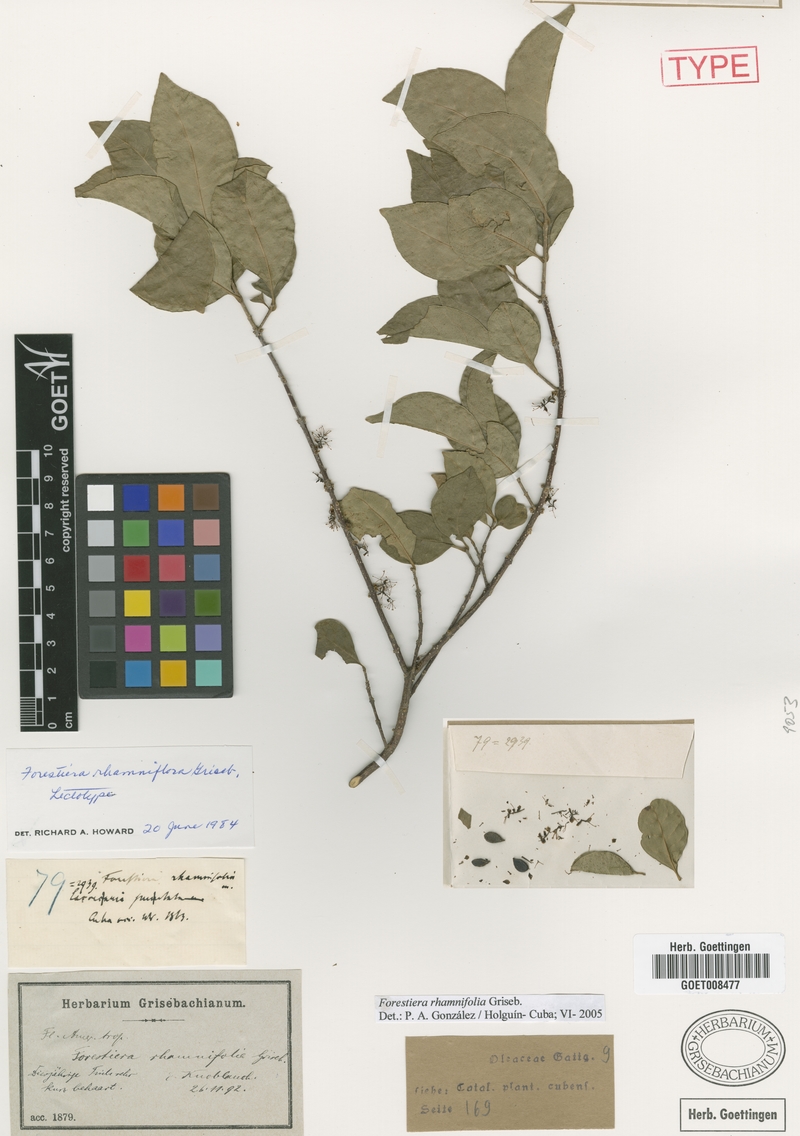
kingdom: Plantae
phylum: Tracheophyta
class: Magnoliopsida
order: Lamiales
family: Oleaceae
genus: Forestiera
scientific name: Forestiera rhamnifolia
